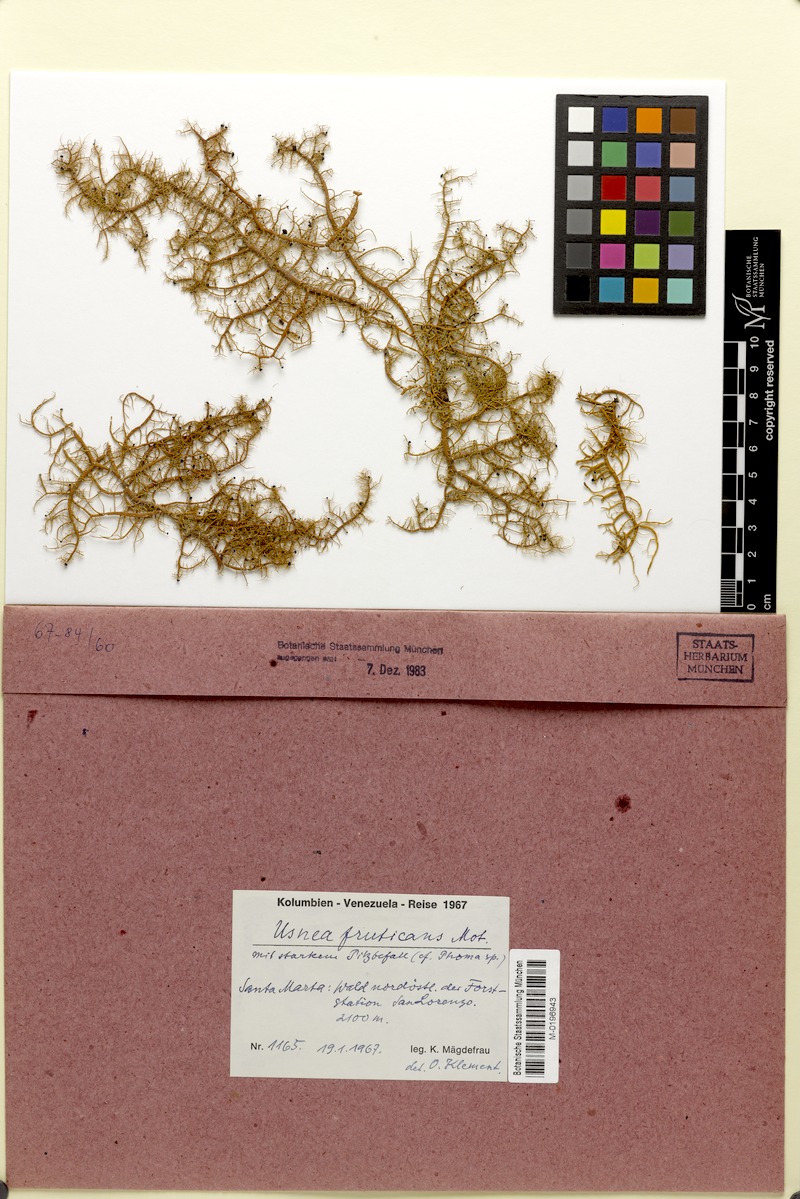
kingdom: Fungi
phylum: Ascomycota
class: Dothideomycetes
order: Pleosporales
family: Didymellaceae
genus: Phoma
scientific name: Phoma
